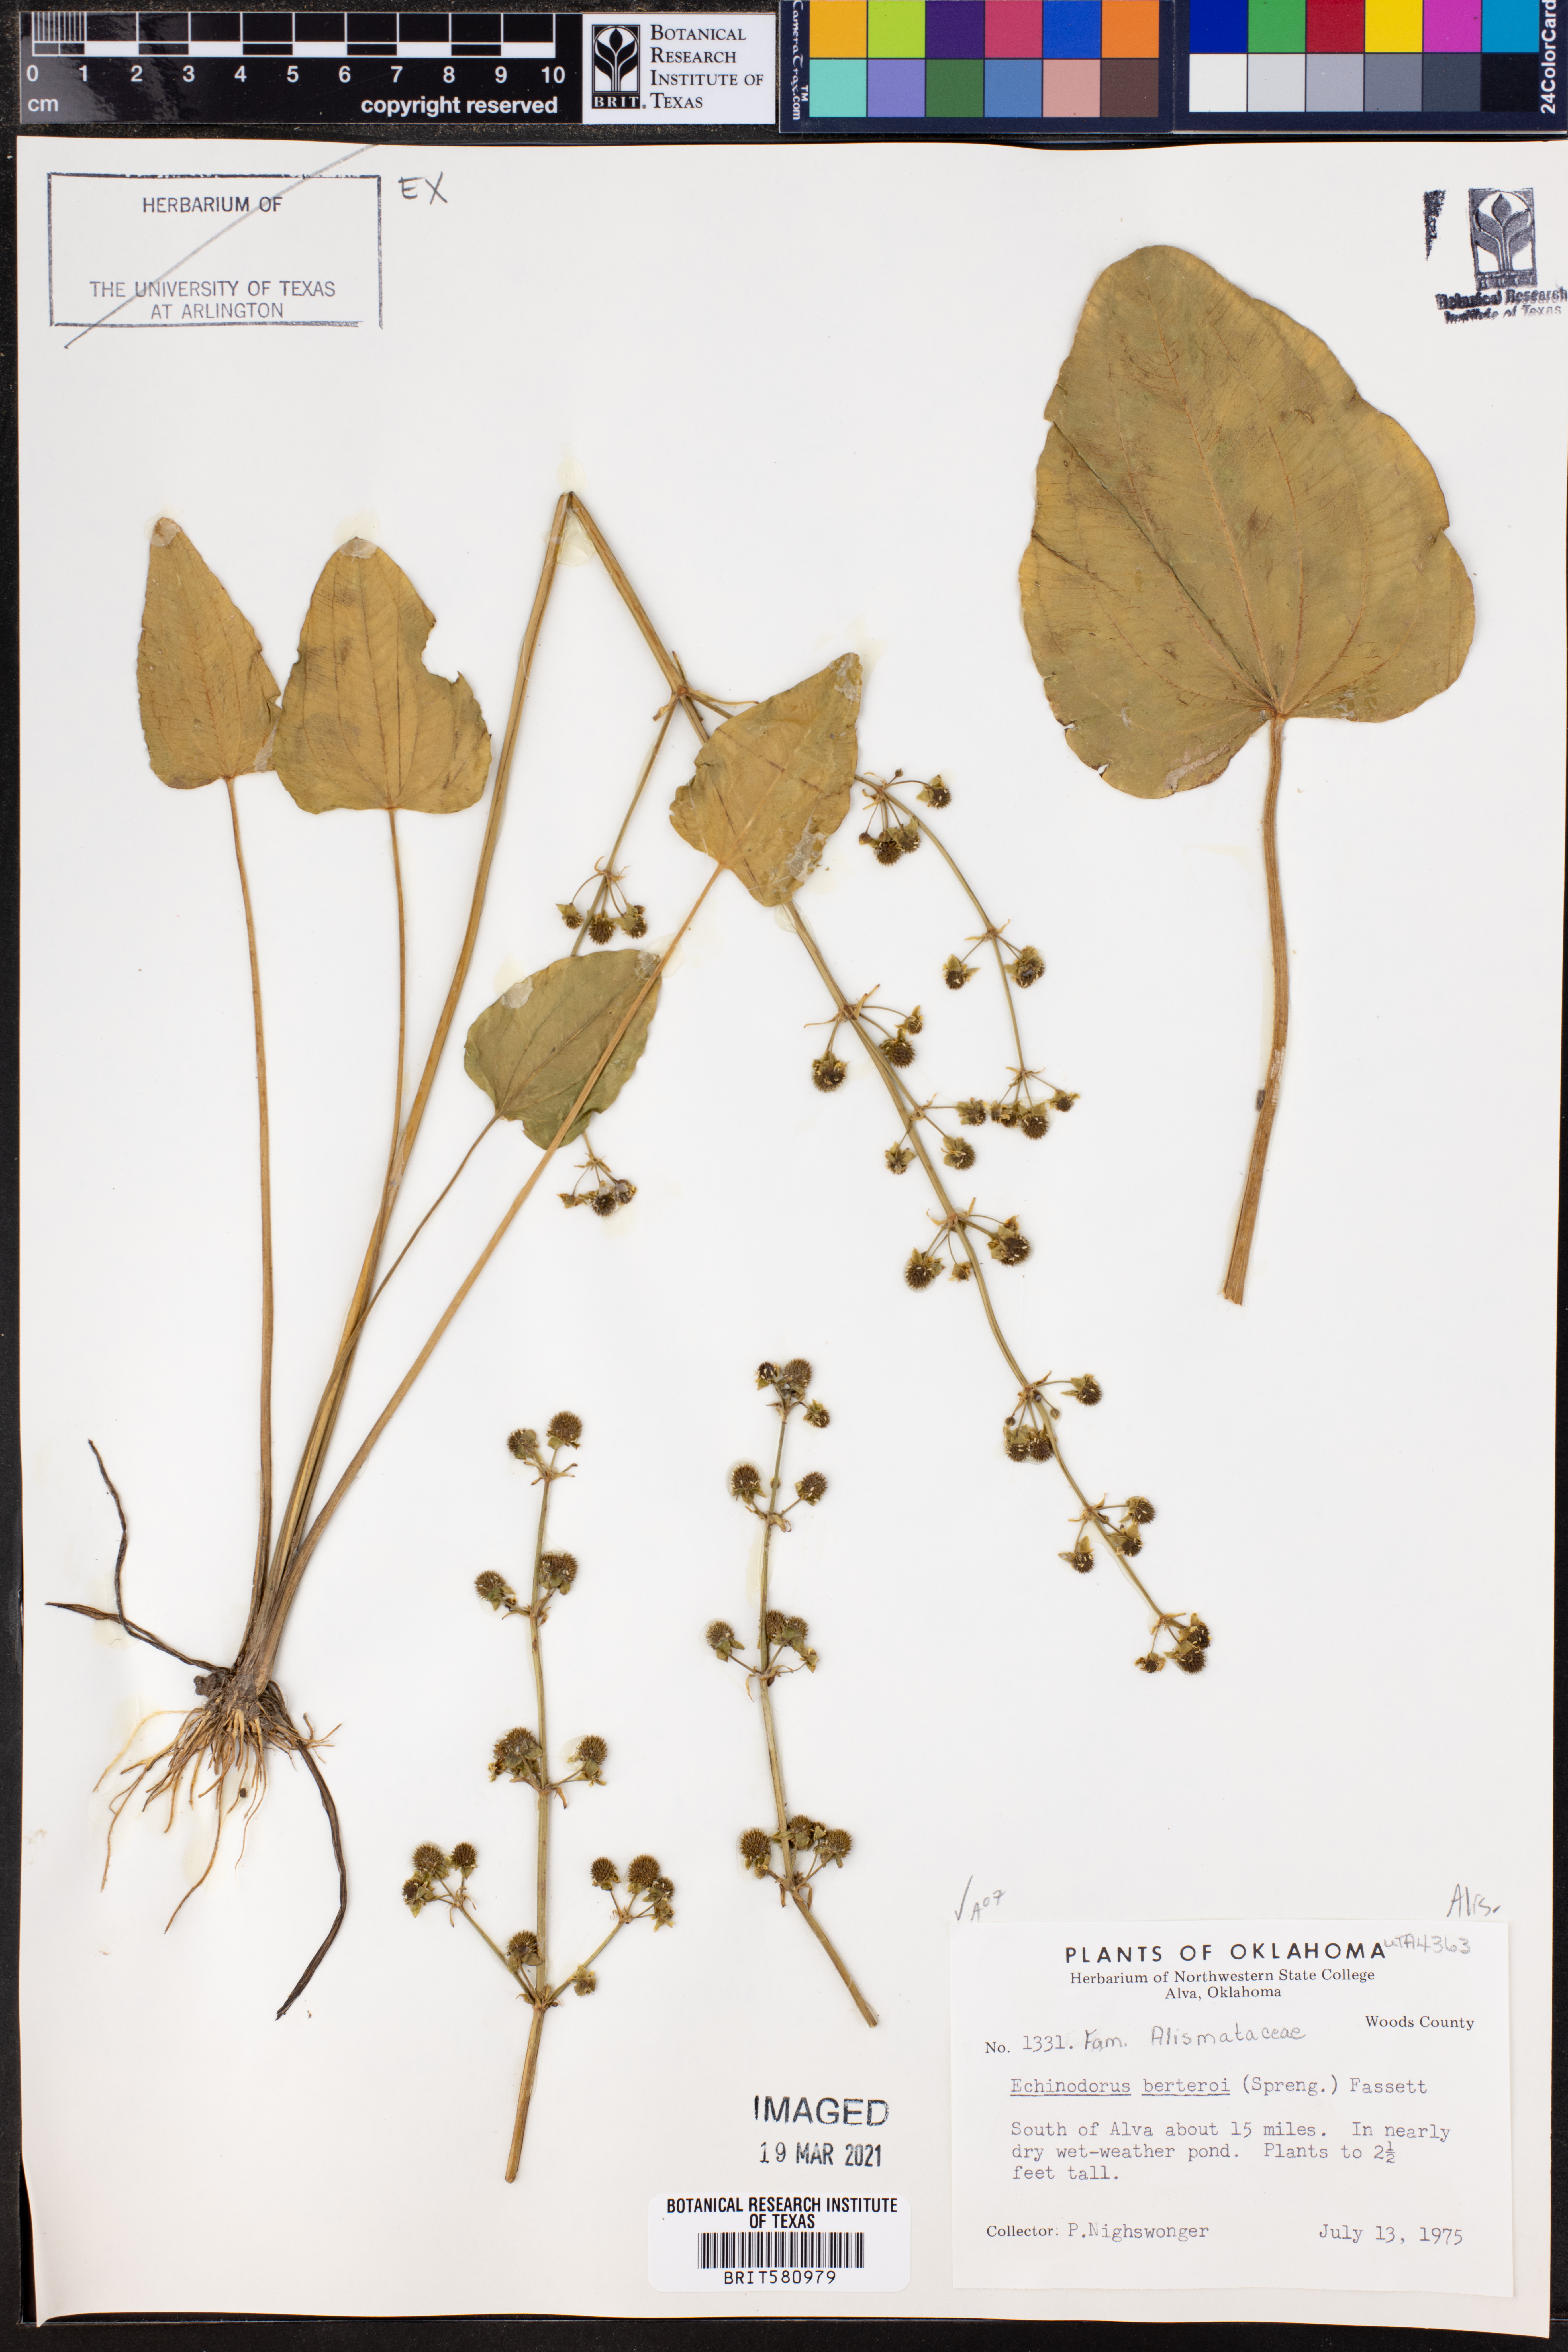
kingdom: Plantae
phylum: Tracheophyta
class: Liliopsida
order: Alismatales
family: Alismataceae
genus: Echinodorus
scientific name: Echinodorus berteroi
